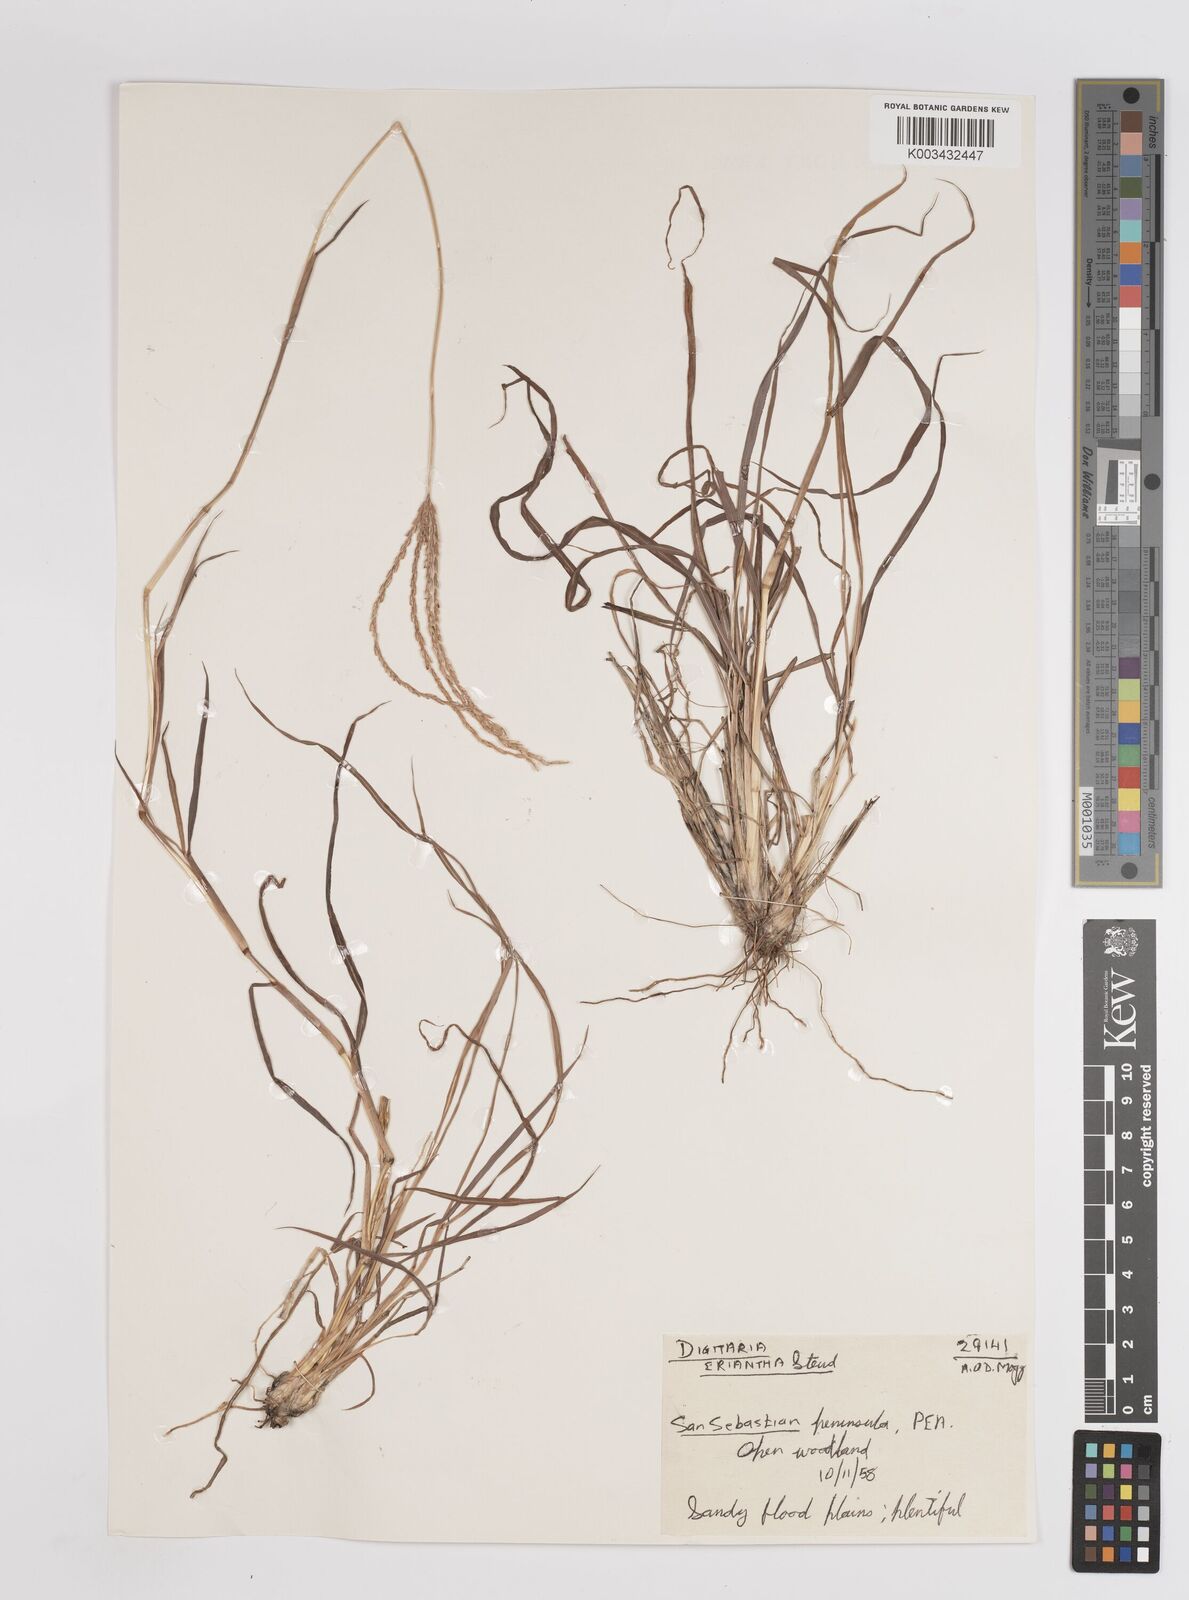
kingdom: Plantae
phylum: Tracheophyta
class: Liliopsida
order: Poales
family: Poaceae
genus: Digitaria
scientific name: Digitaria eriantha
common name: Digitgrass
